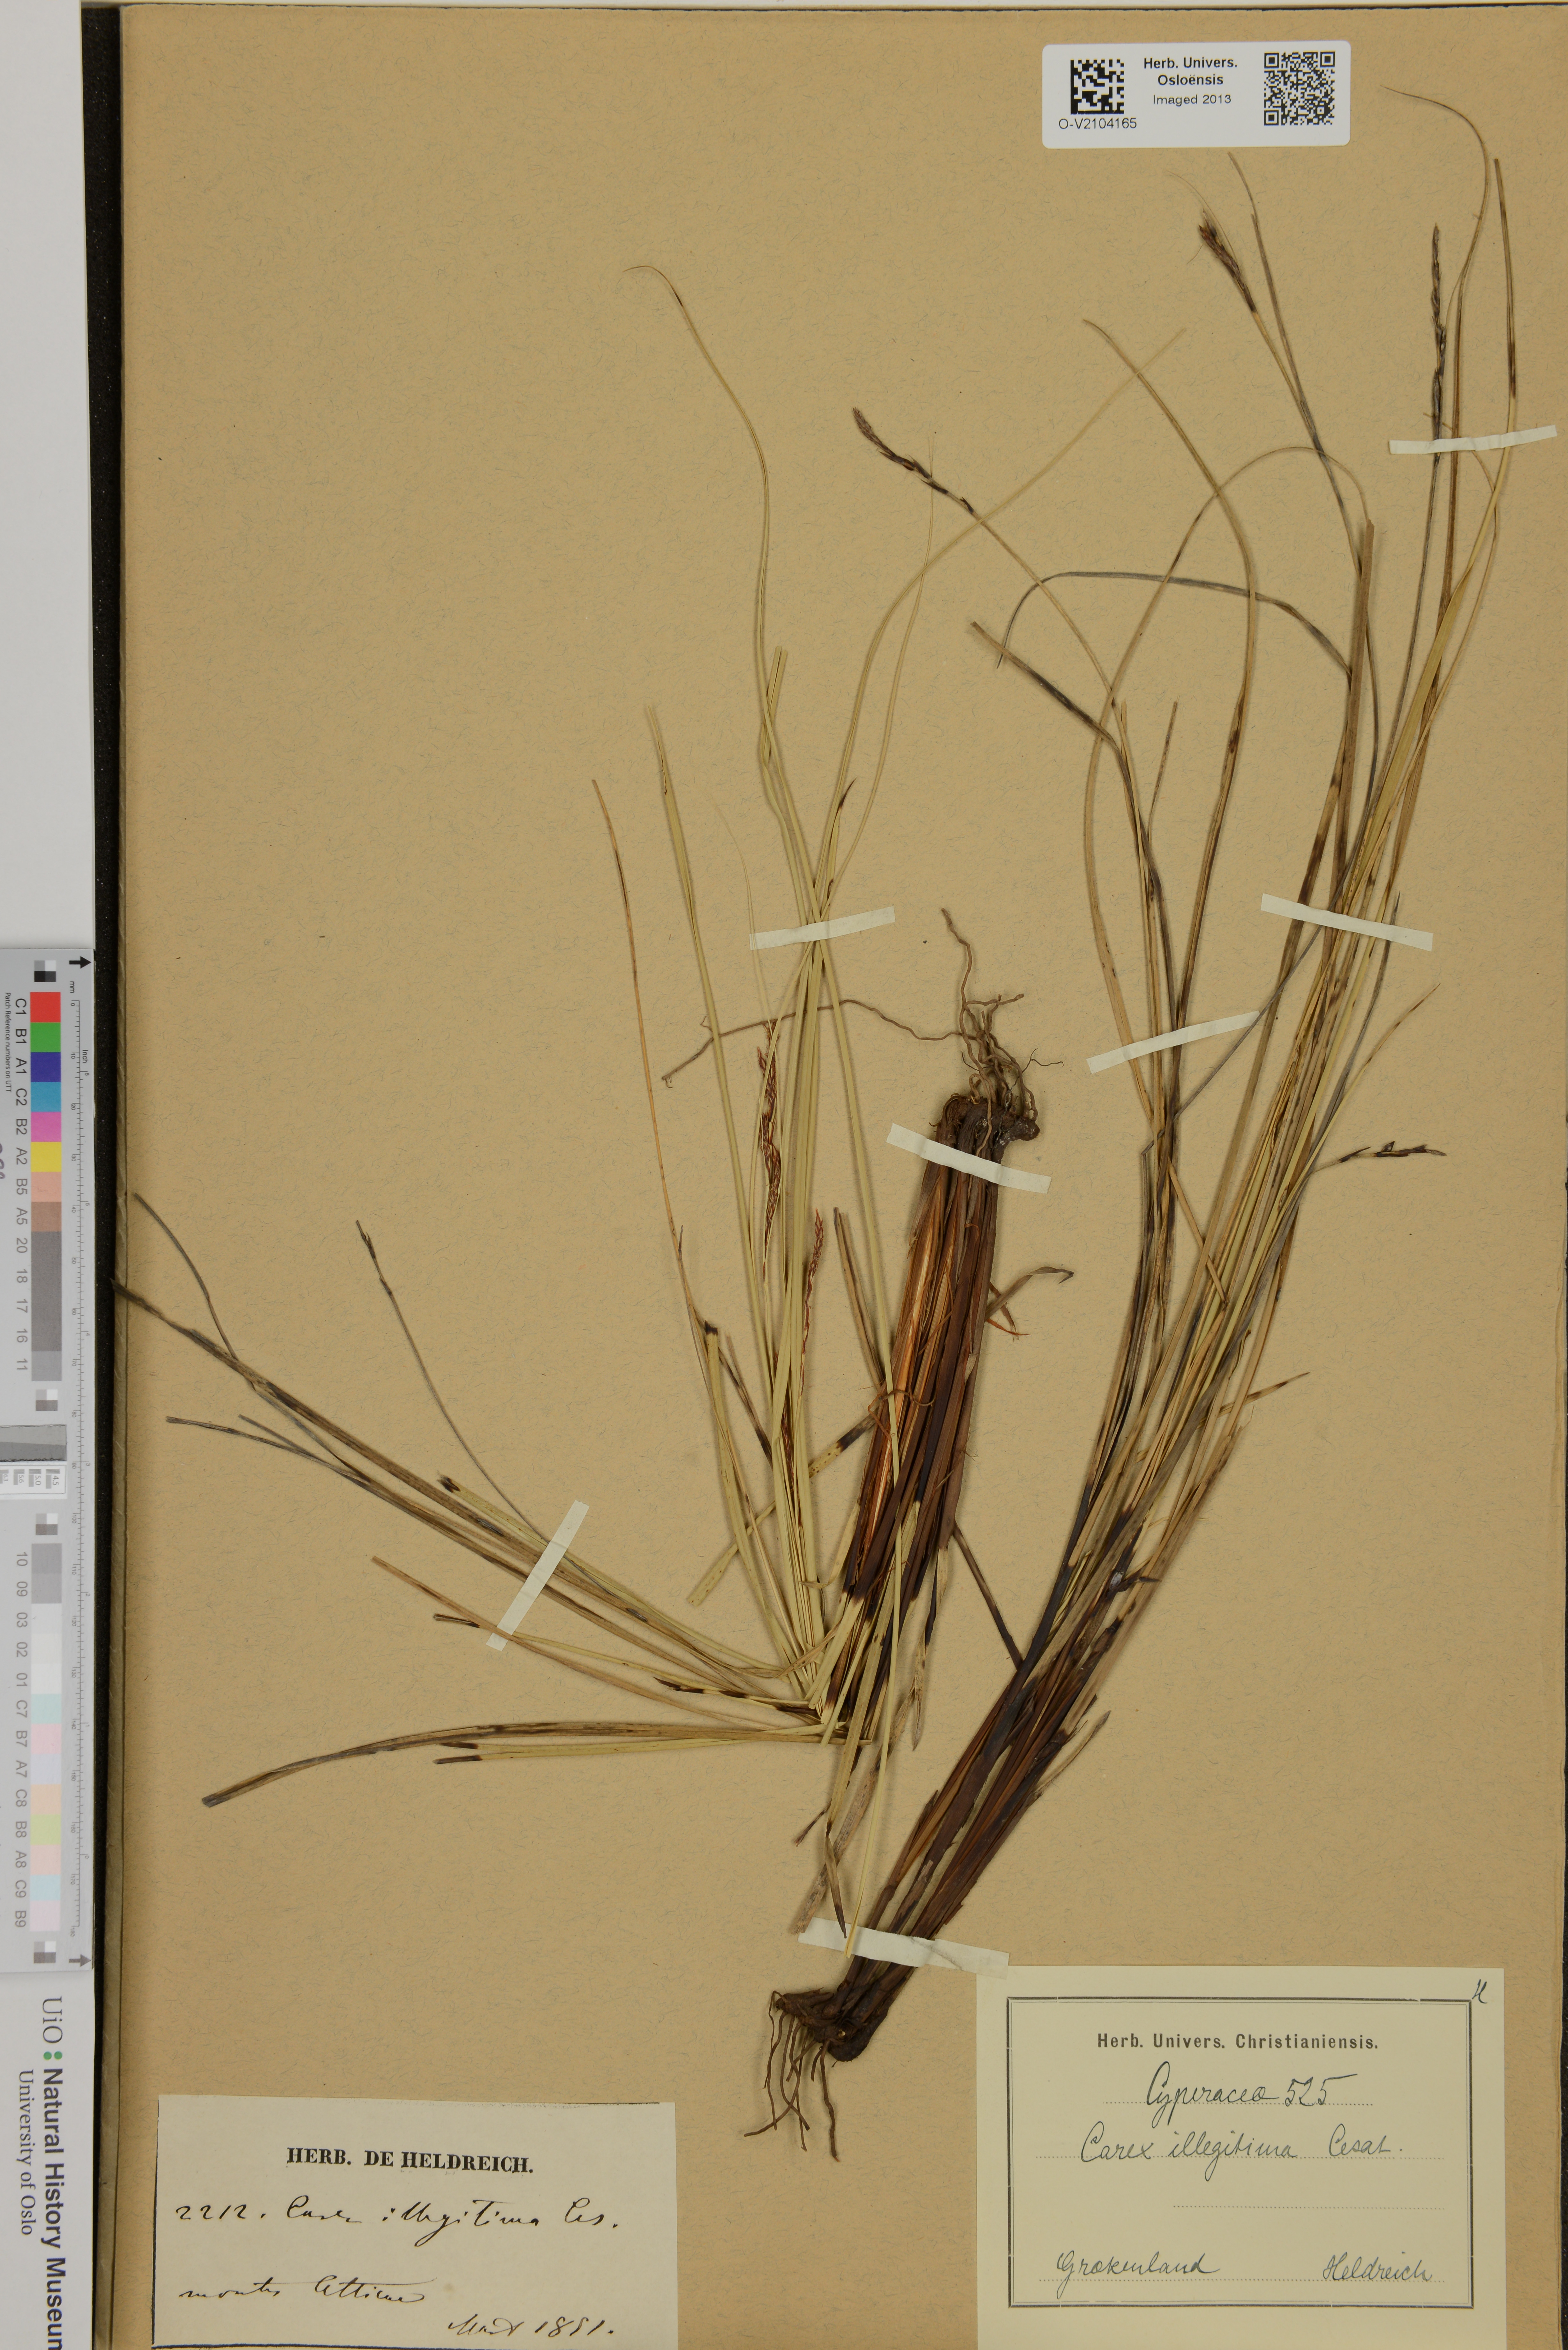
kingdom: Plantae
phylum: Tracheophyta
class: Liliopsida
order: Poales
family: Cyperaceae
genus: Carex
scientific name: Carex illegitima
